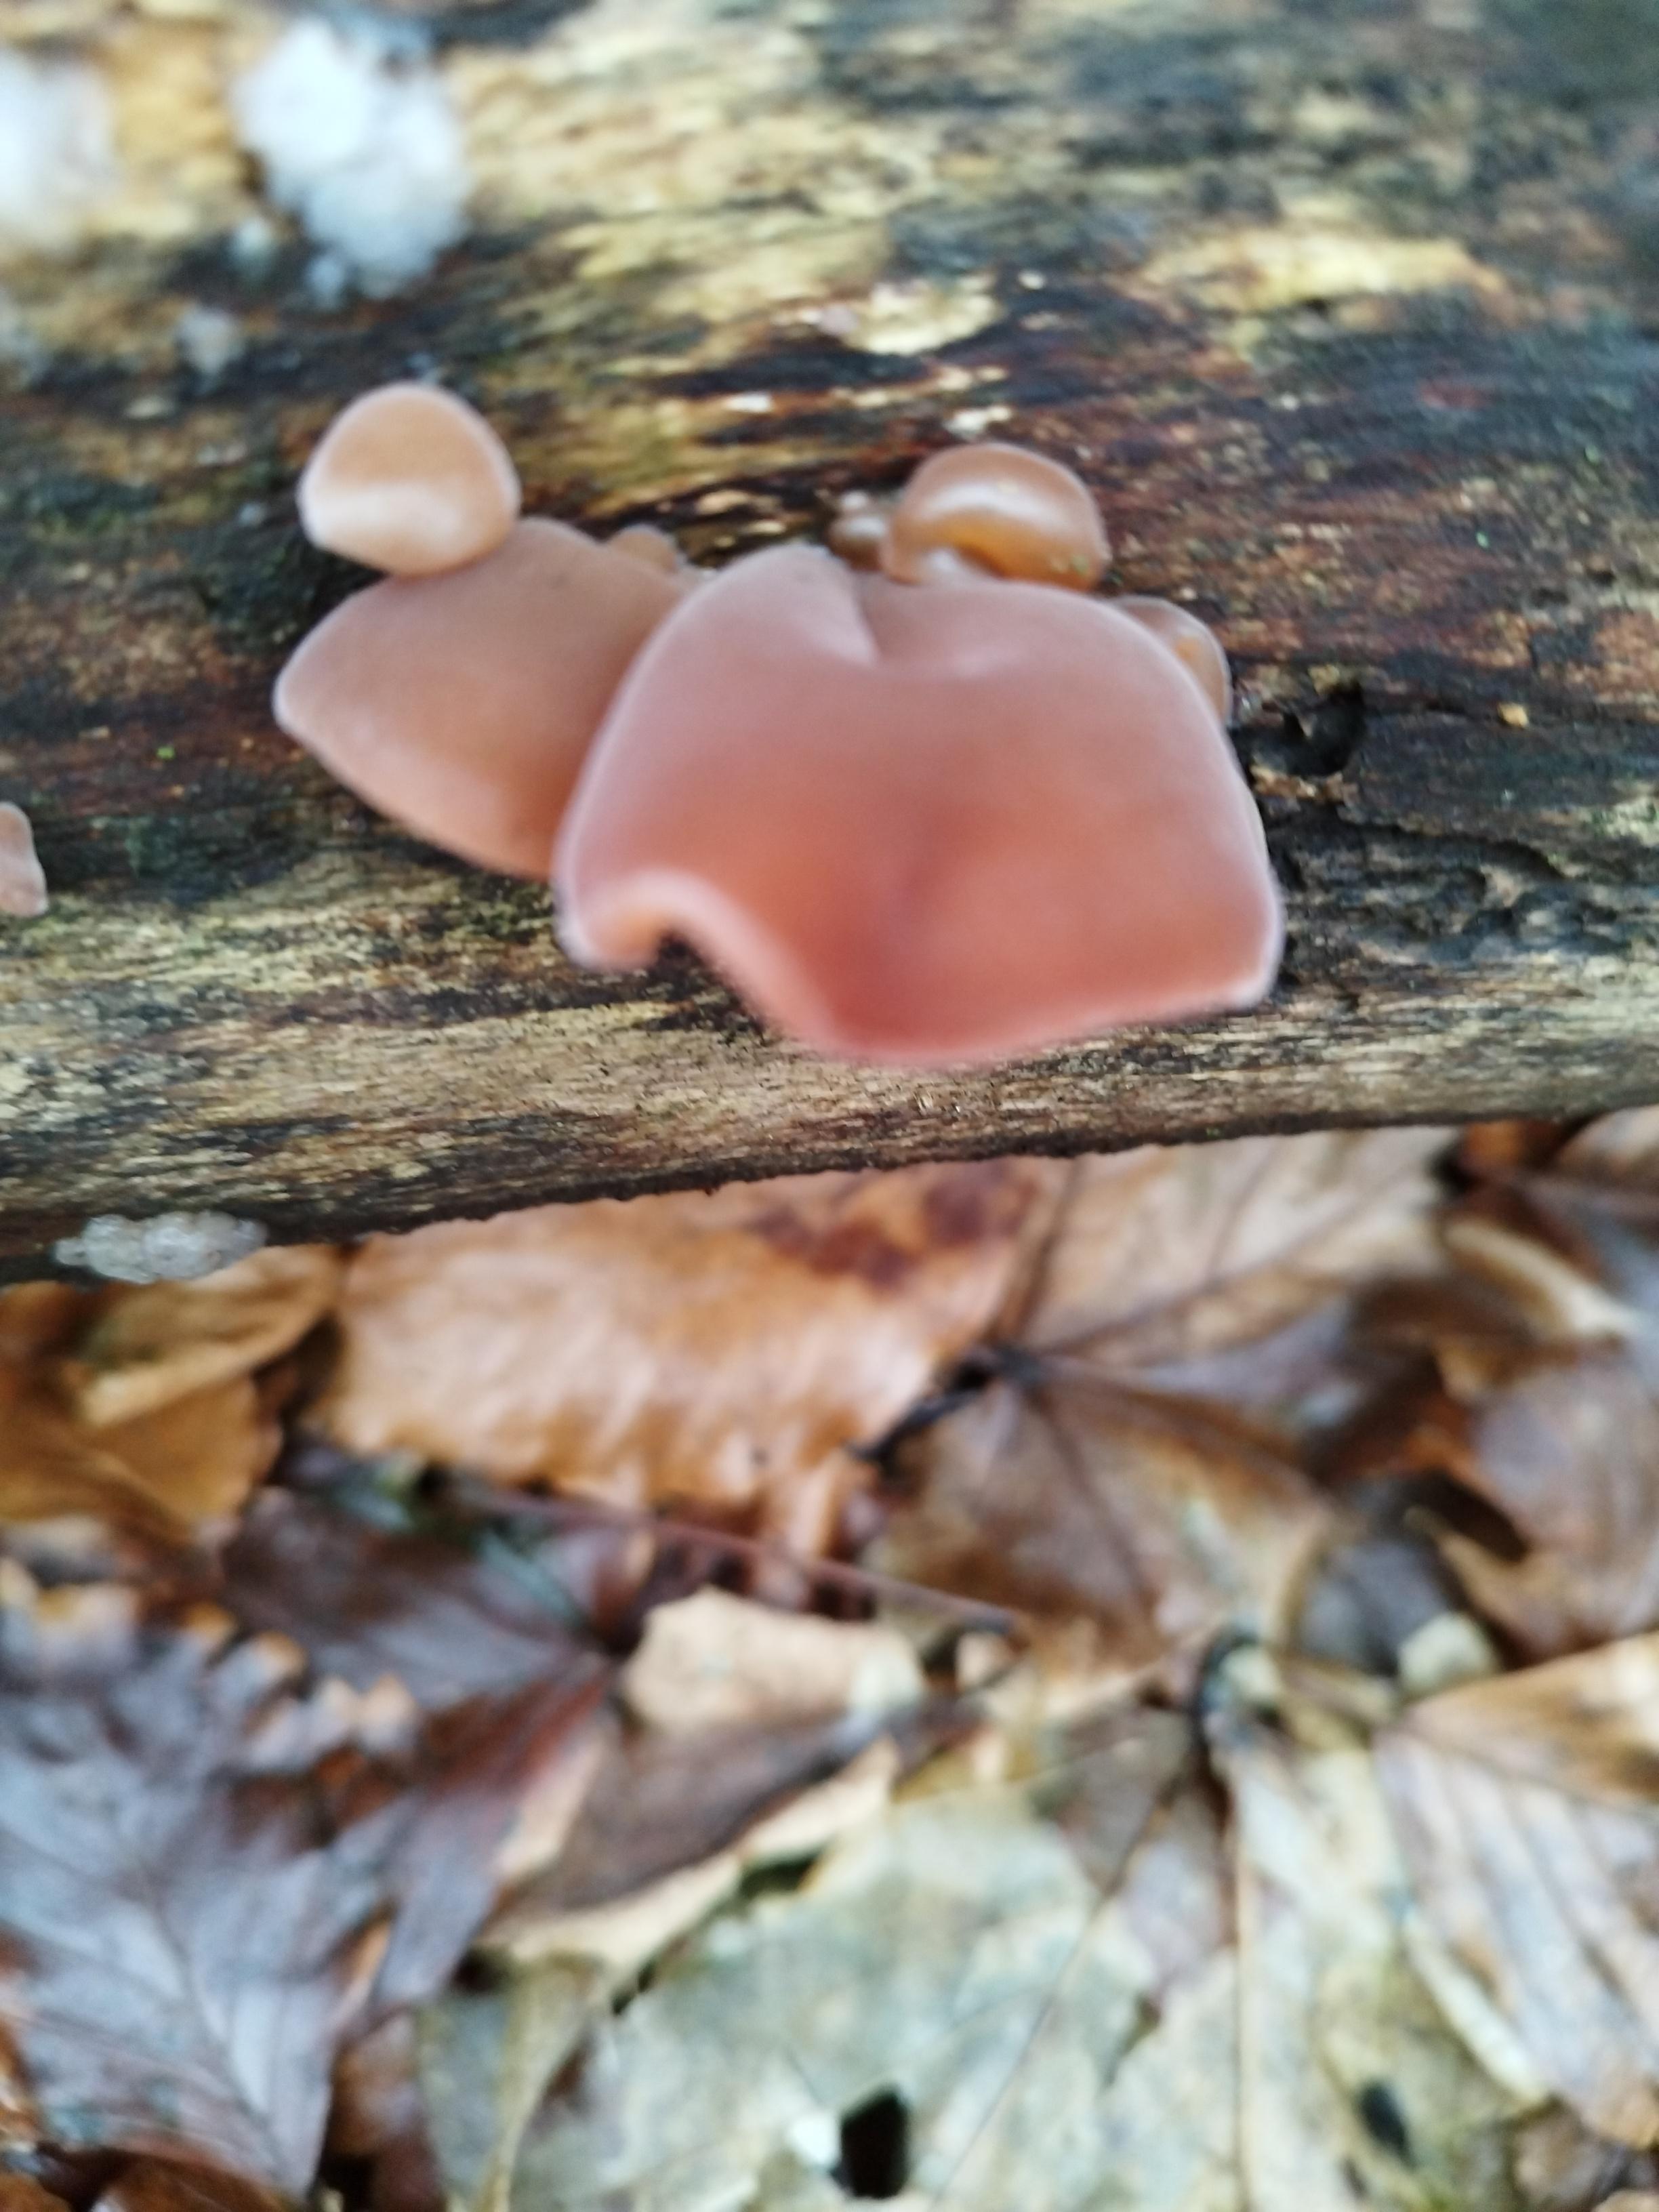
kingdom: Fungi
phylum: Basidiomycota
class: Agaricomycetes
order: Auriculariales
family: Auriculariaceae
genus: Auricularia
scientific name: Auricularia auricula-judae
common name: almindelig judasøre
